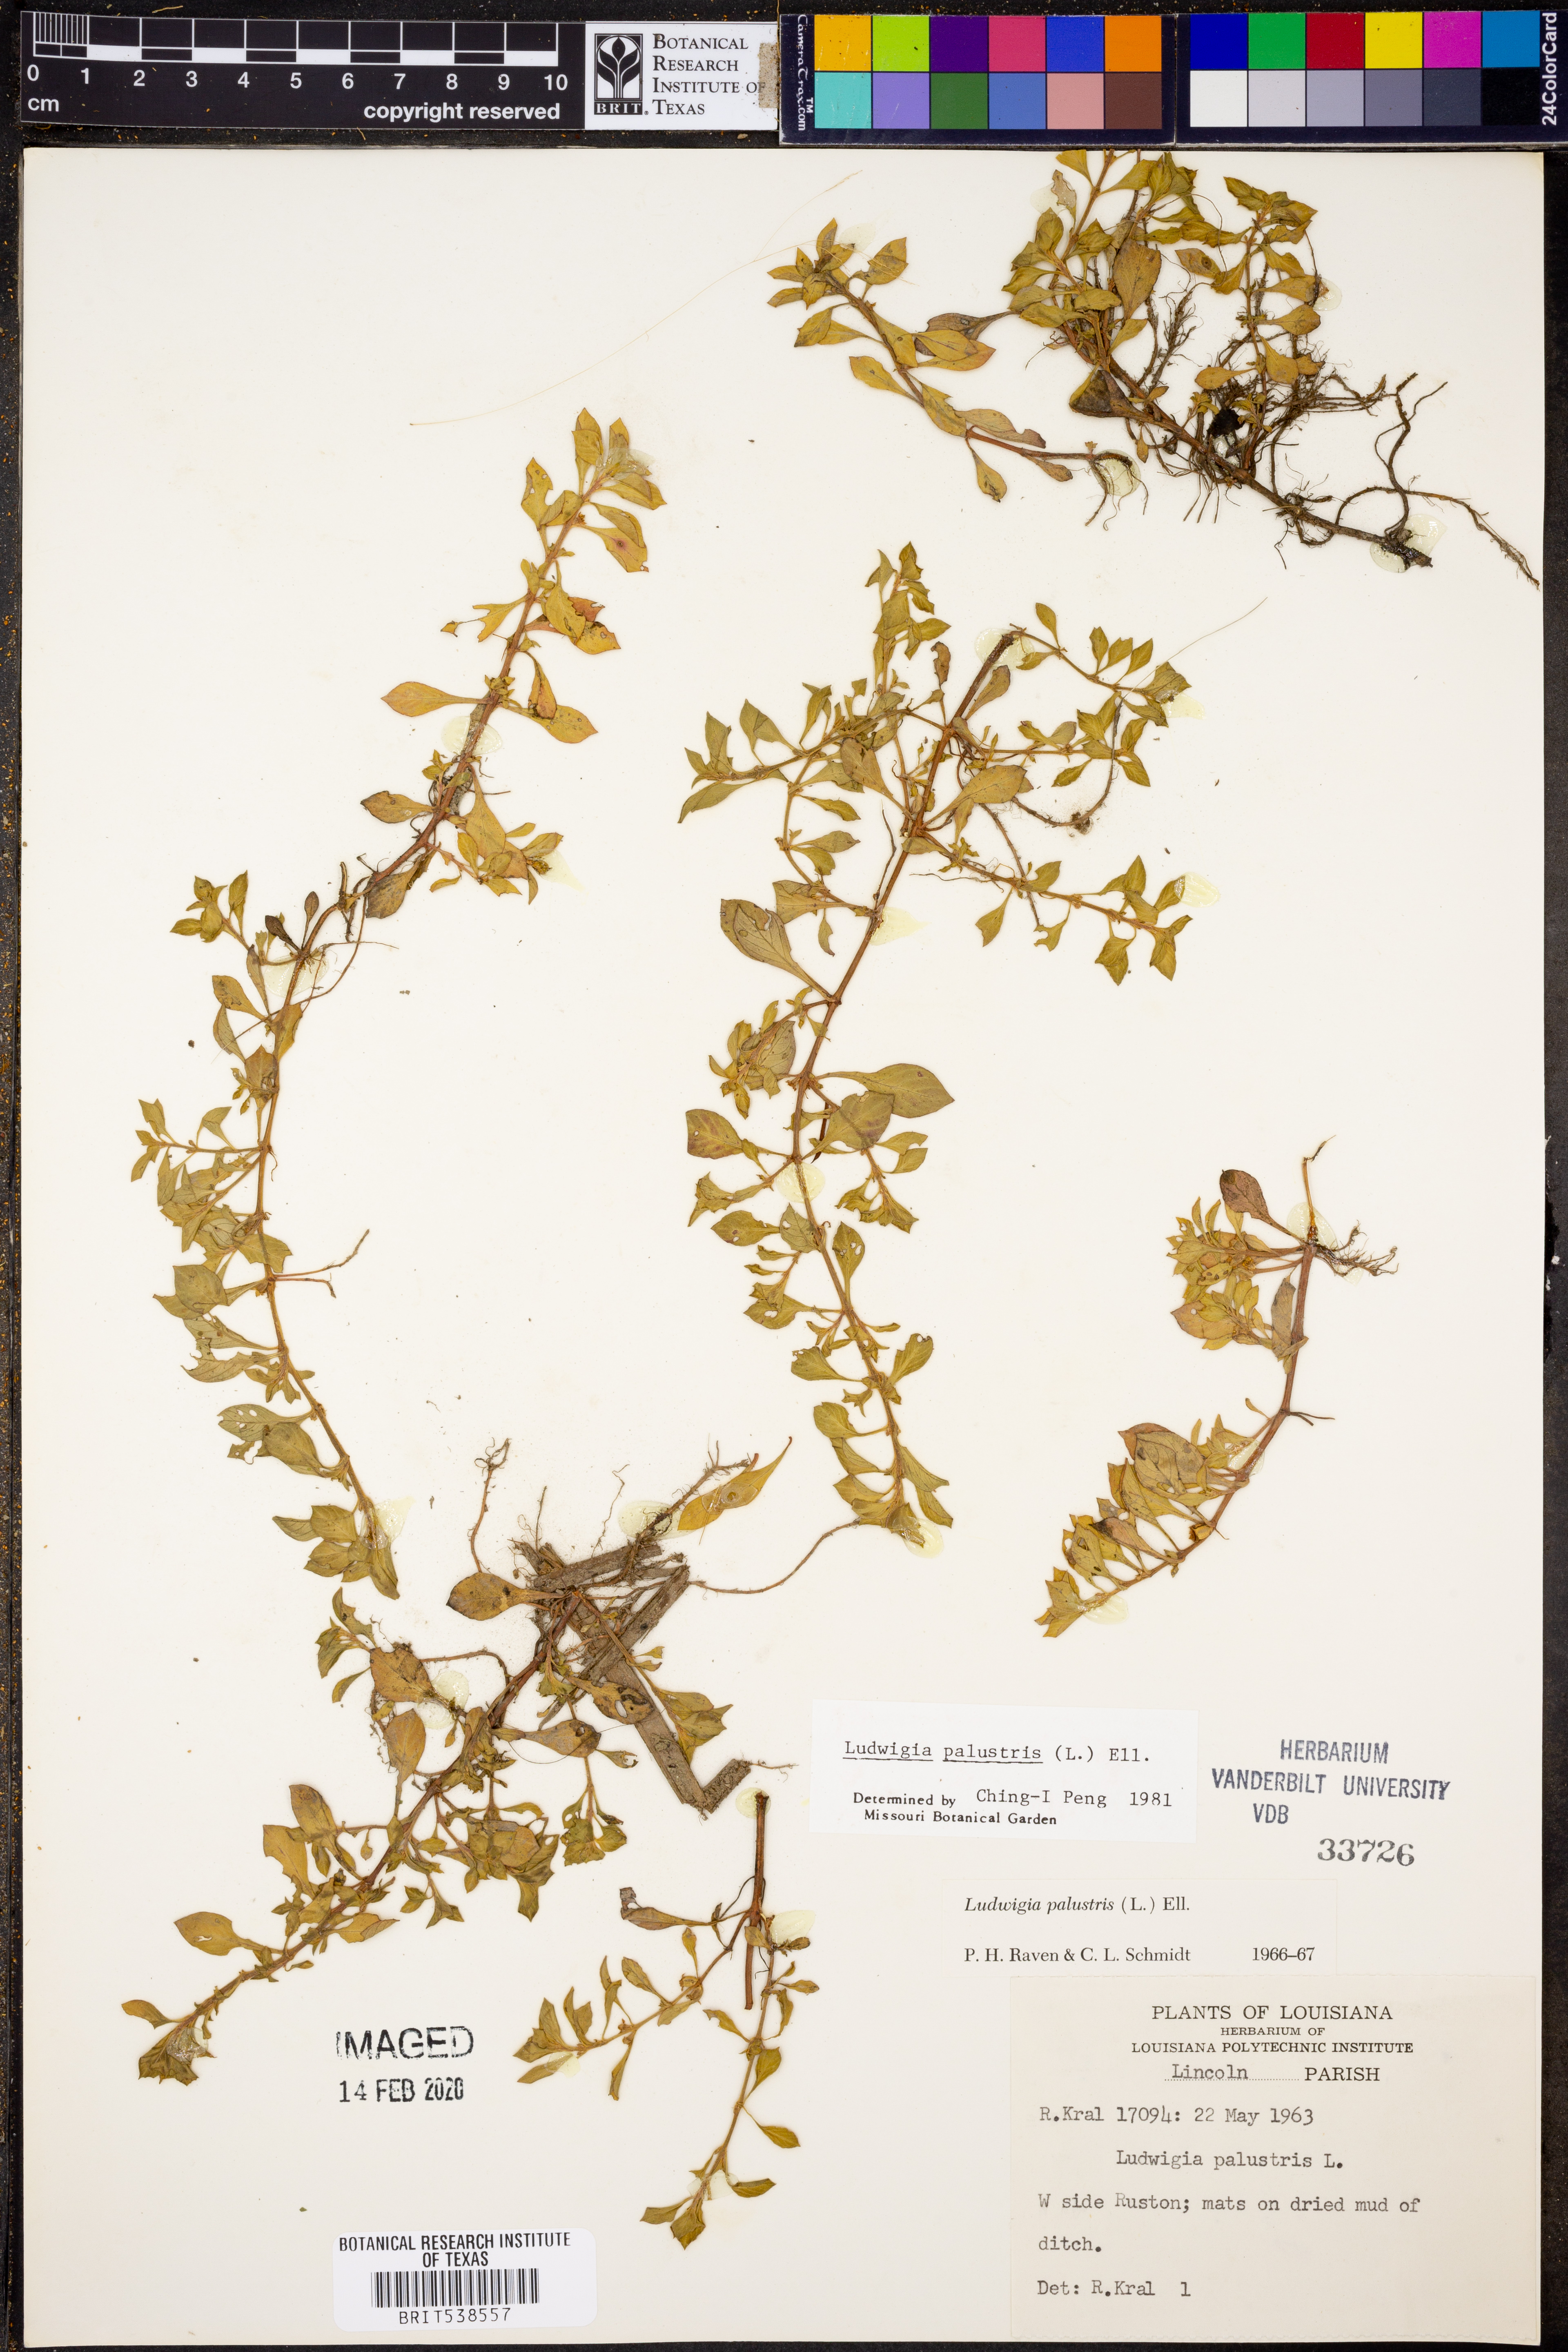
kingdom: Plantae
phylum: Tracheophyta
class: Magnoliopsida
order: Myrtales
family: Onagraceae
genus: Ludwigia
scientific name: Ludwigia palustris
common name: Hampshire-purslane
